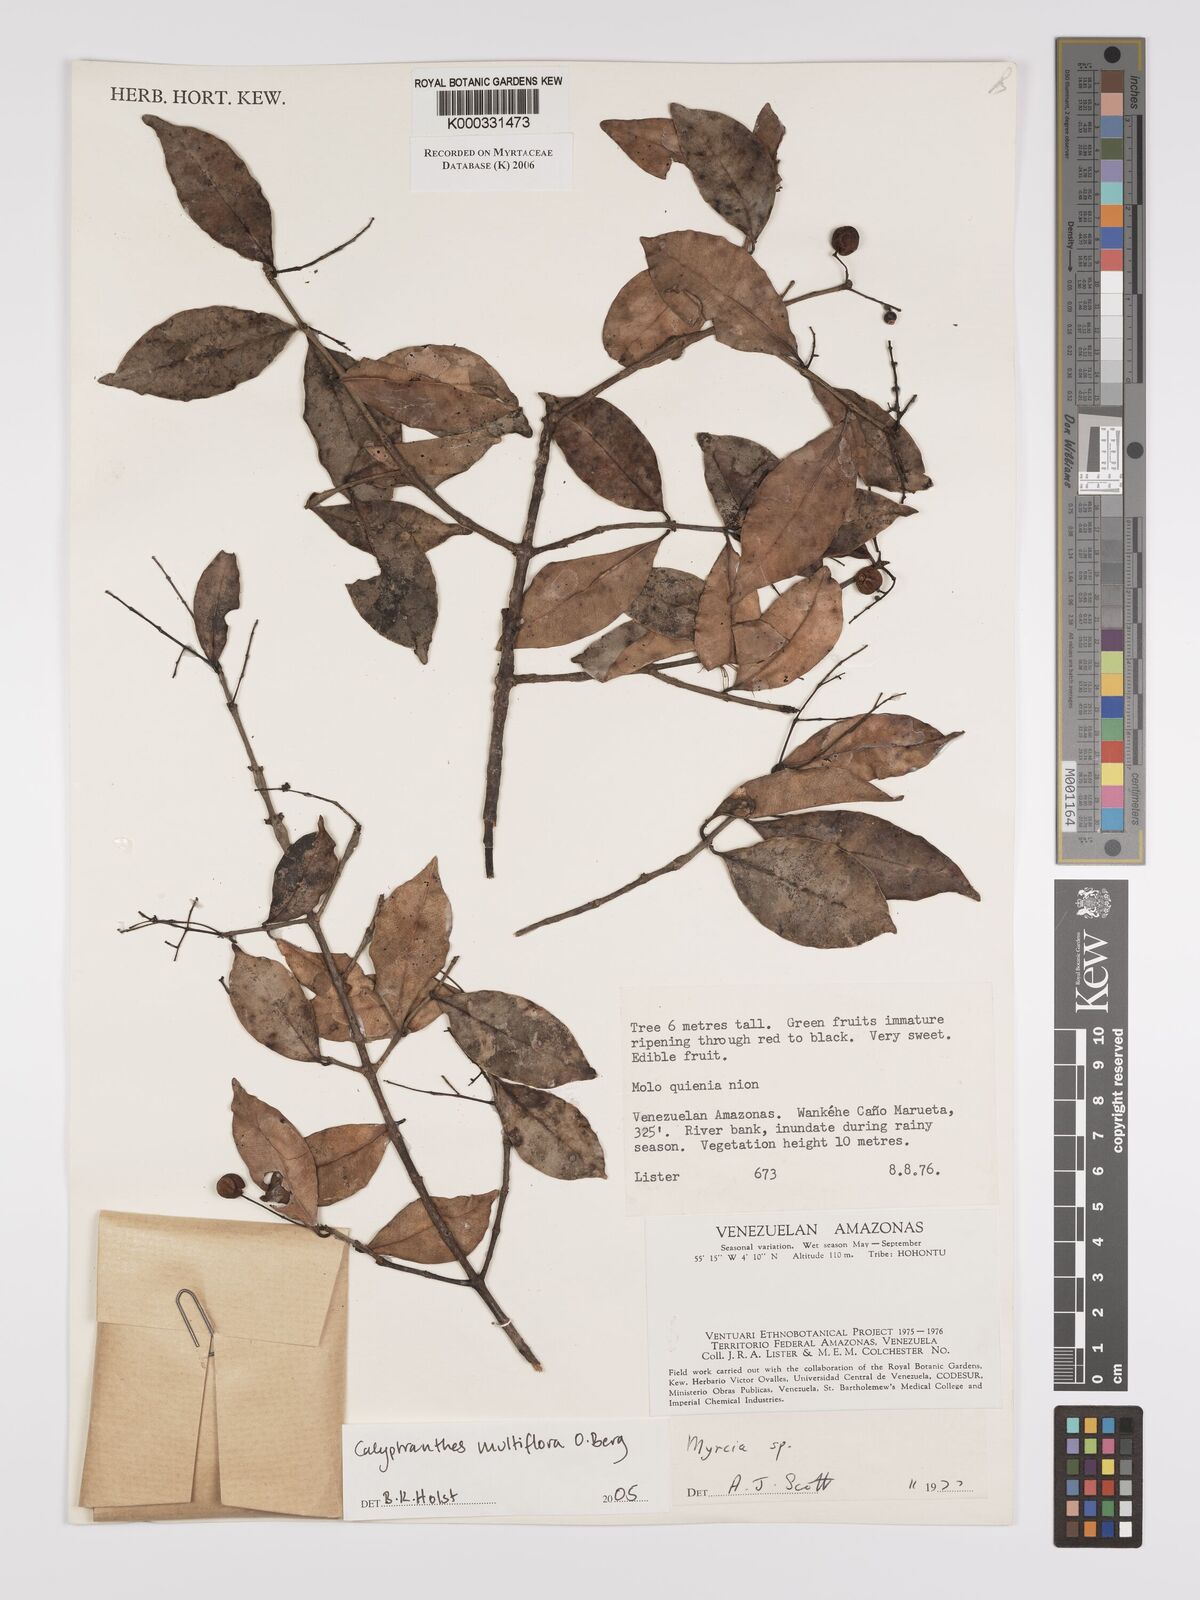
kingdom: Plantae
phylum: Tracheophyta
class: Magnoliopsida
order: Myrtales
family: Myrtaceae
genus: Myrcia
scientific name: Myrcia aulomyrcioides
